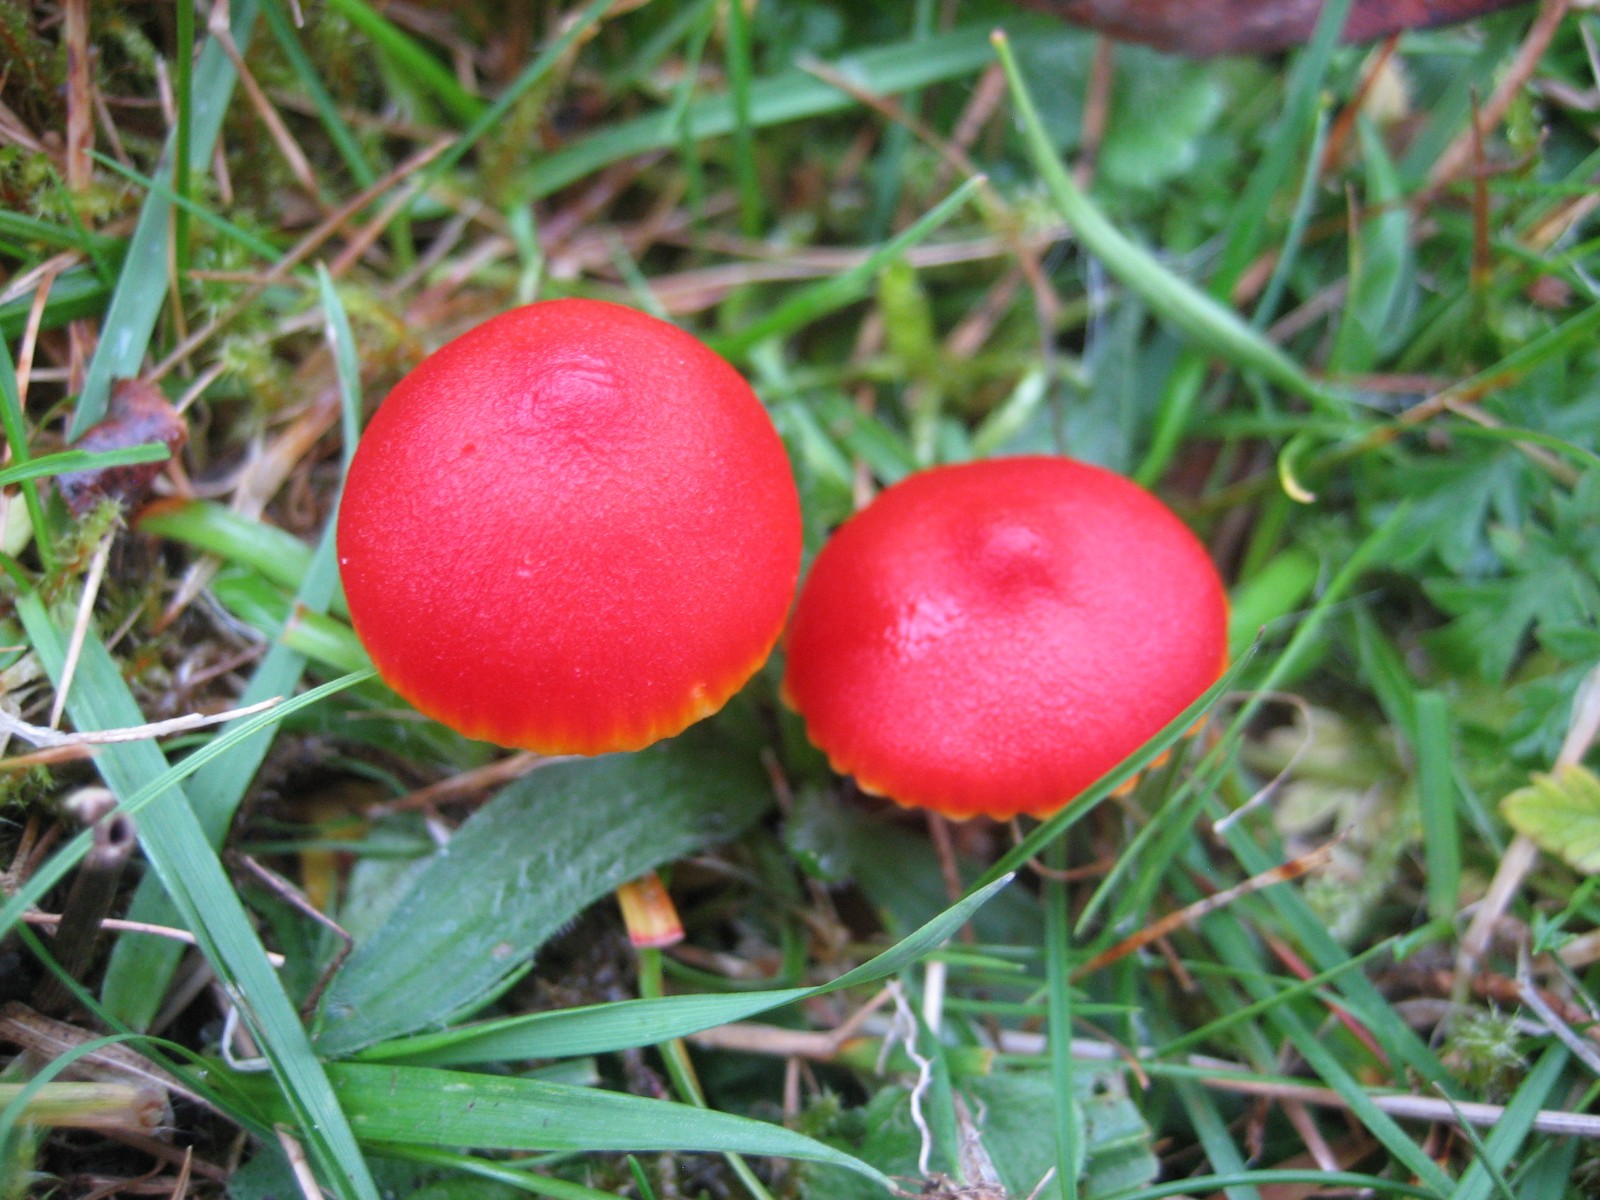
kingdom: Fungi
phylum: Basidiomycota
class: Agaricomycetes
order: Agaricales
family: Hygrophoraceae
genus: Hygrocybe
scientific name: Hygrocybe coccinea
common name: cinnober-vokshat
